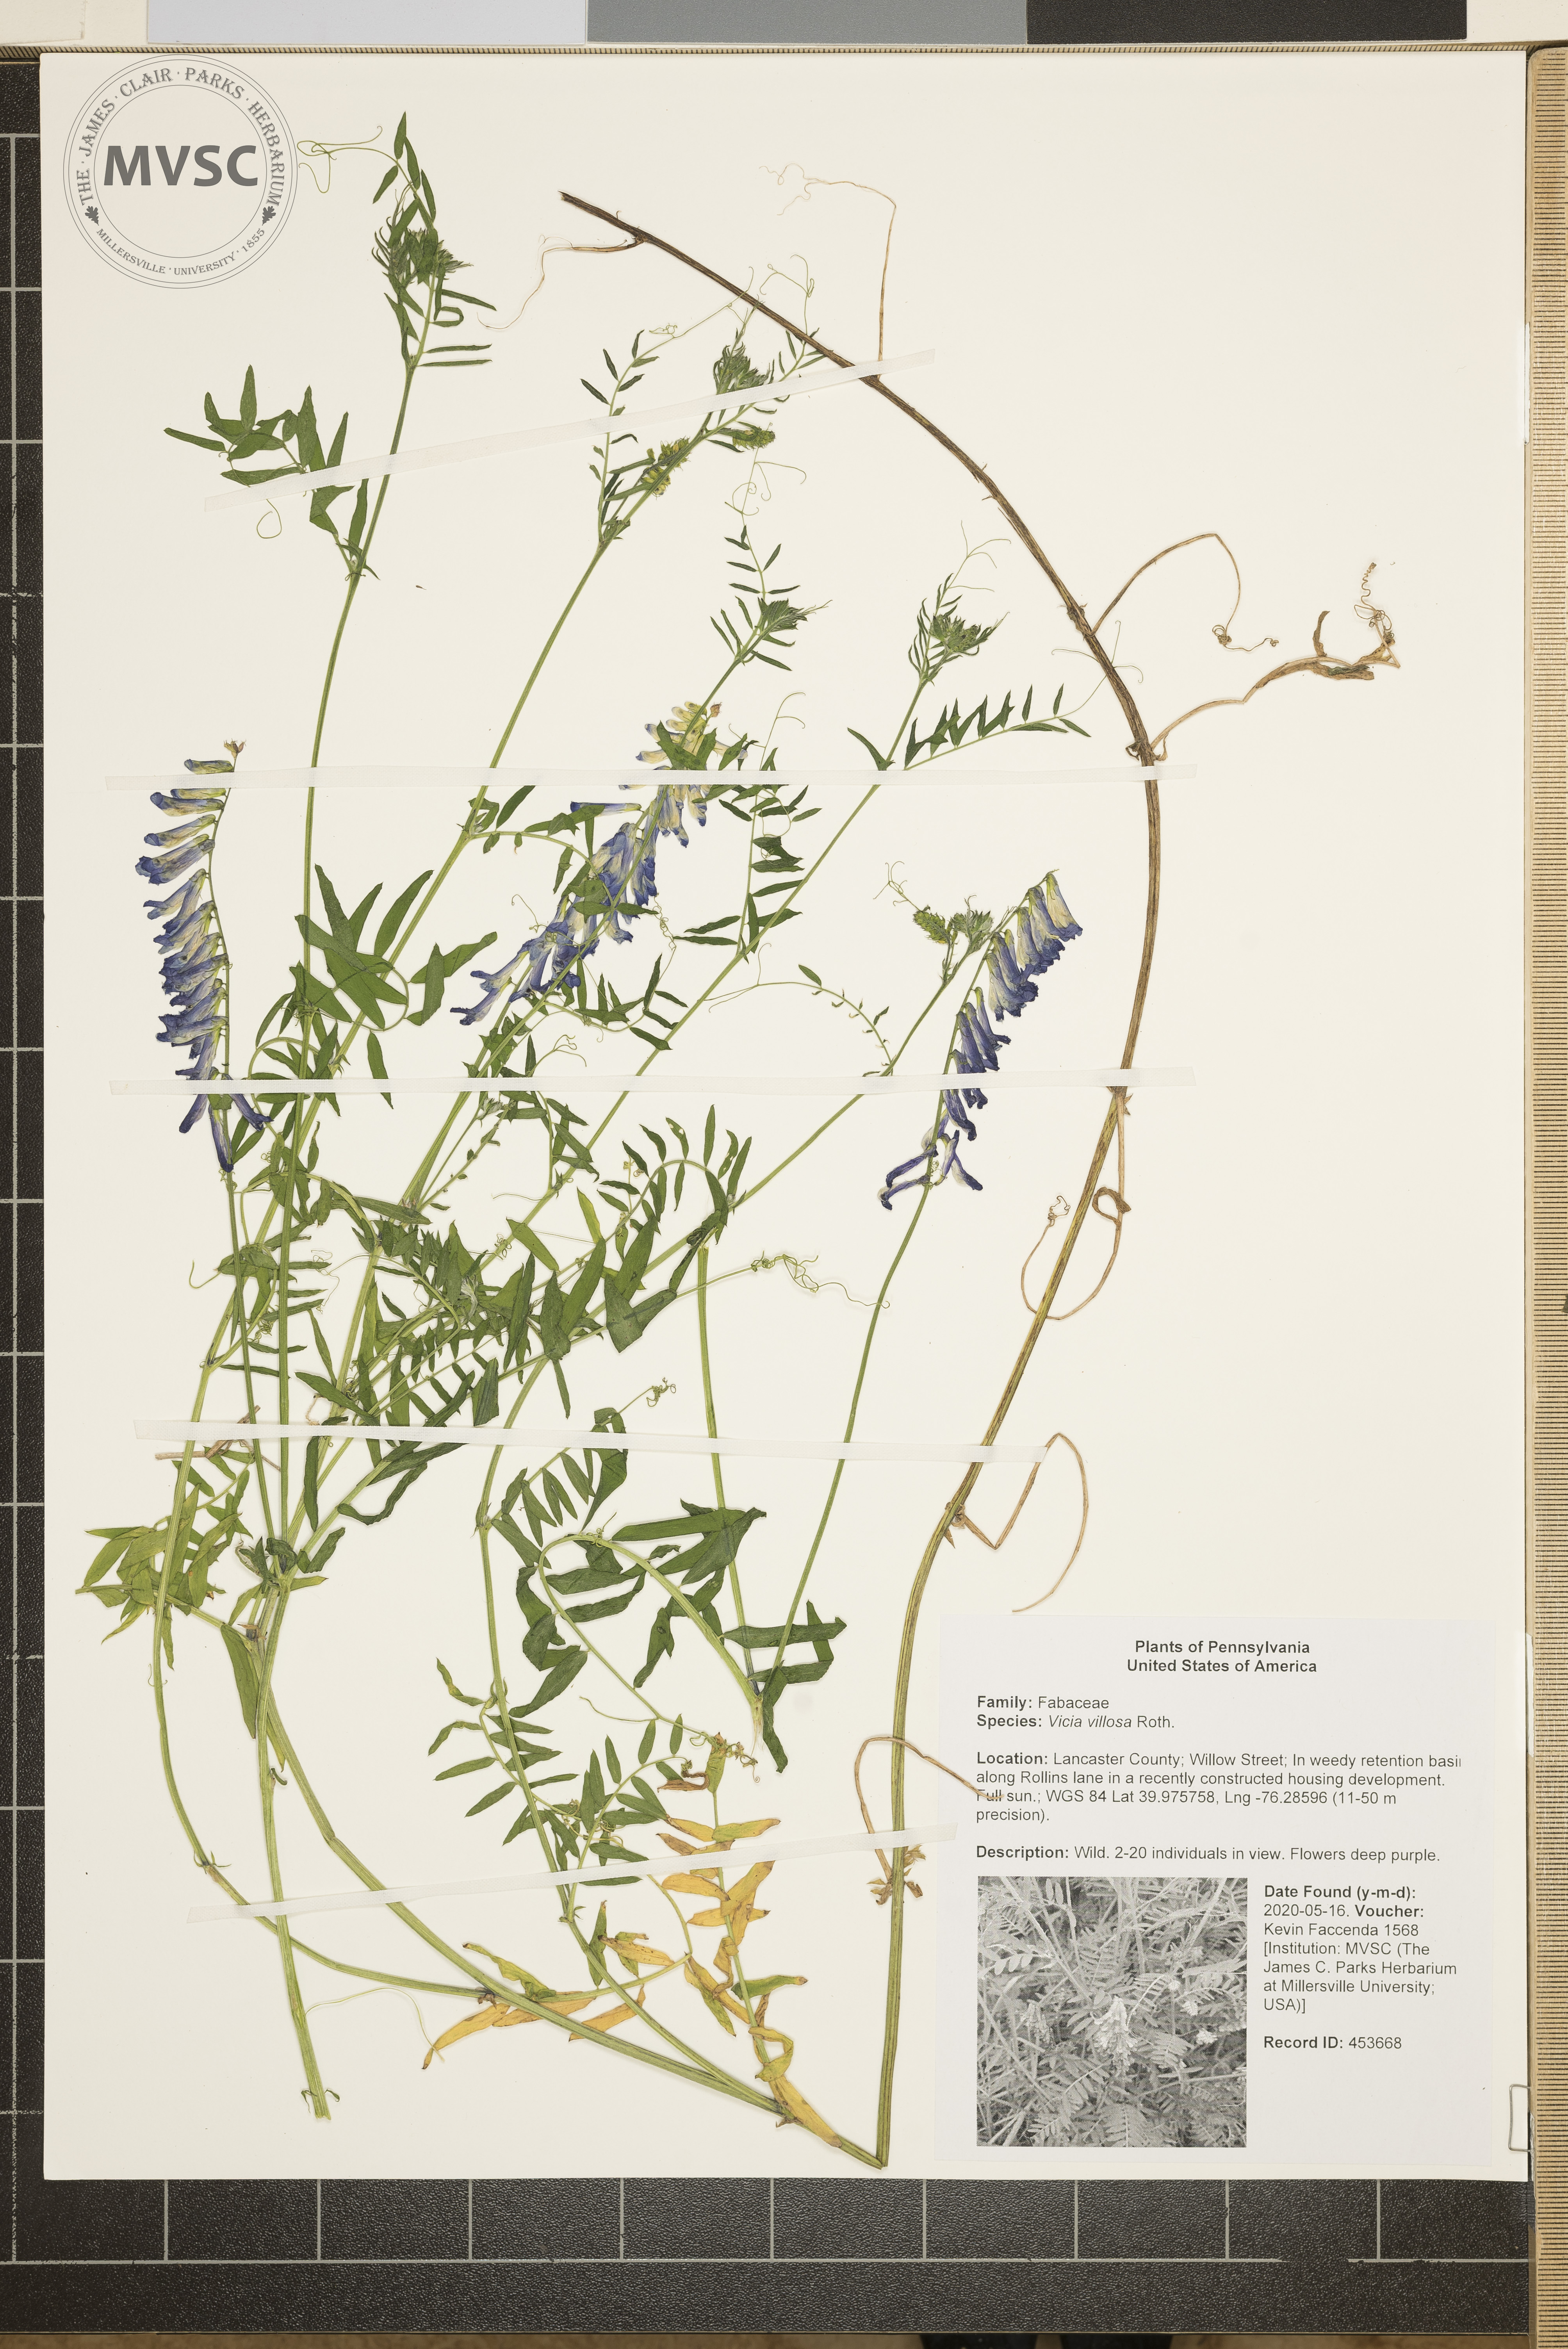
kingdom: Plantae
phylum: Tracheophyta
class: Magnoliopsida
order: Fabales
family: Fabaceae
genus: Vicia
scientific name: Vicia villosa
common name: Fodder vetch
